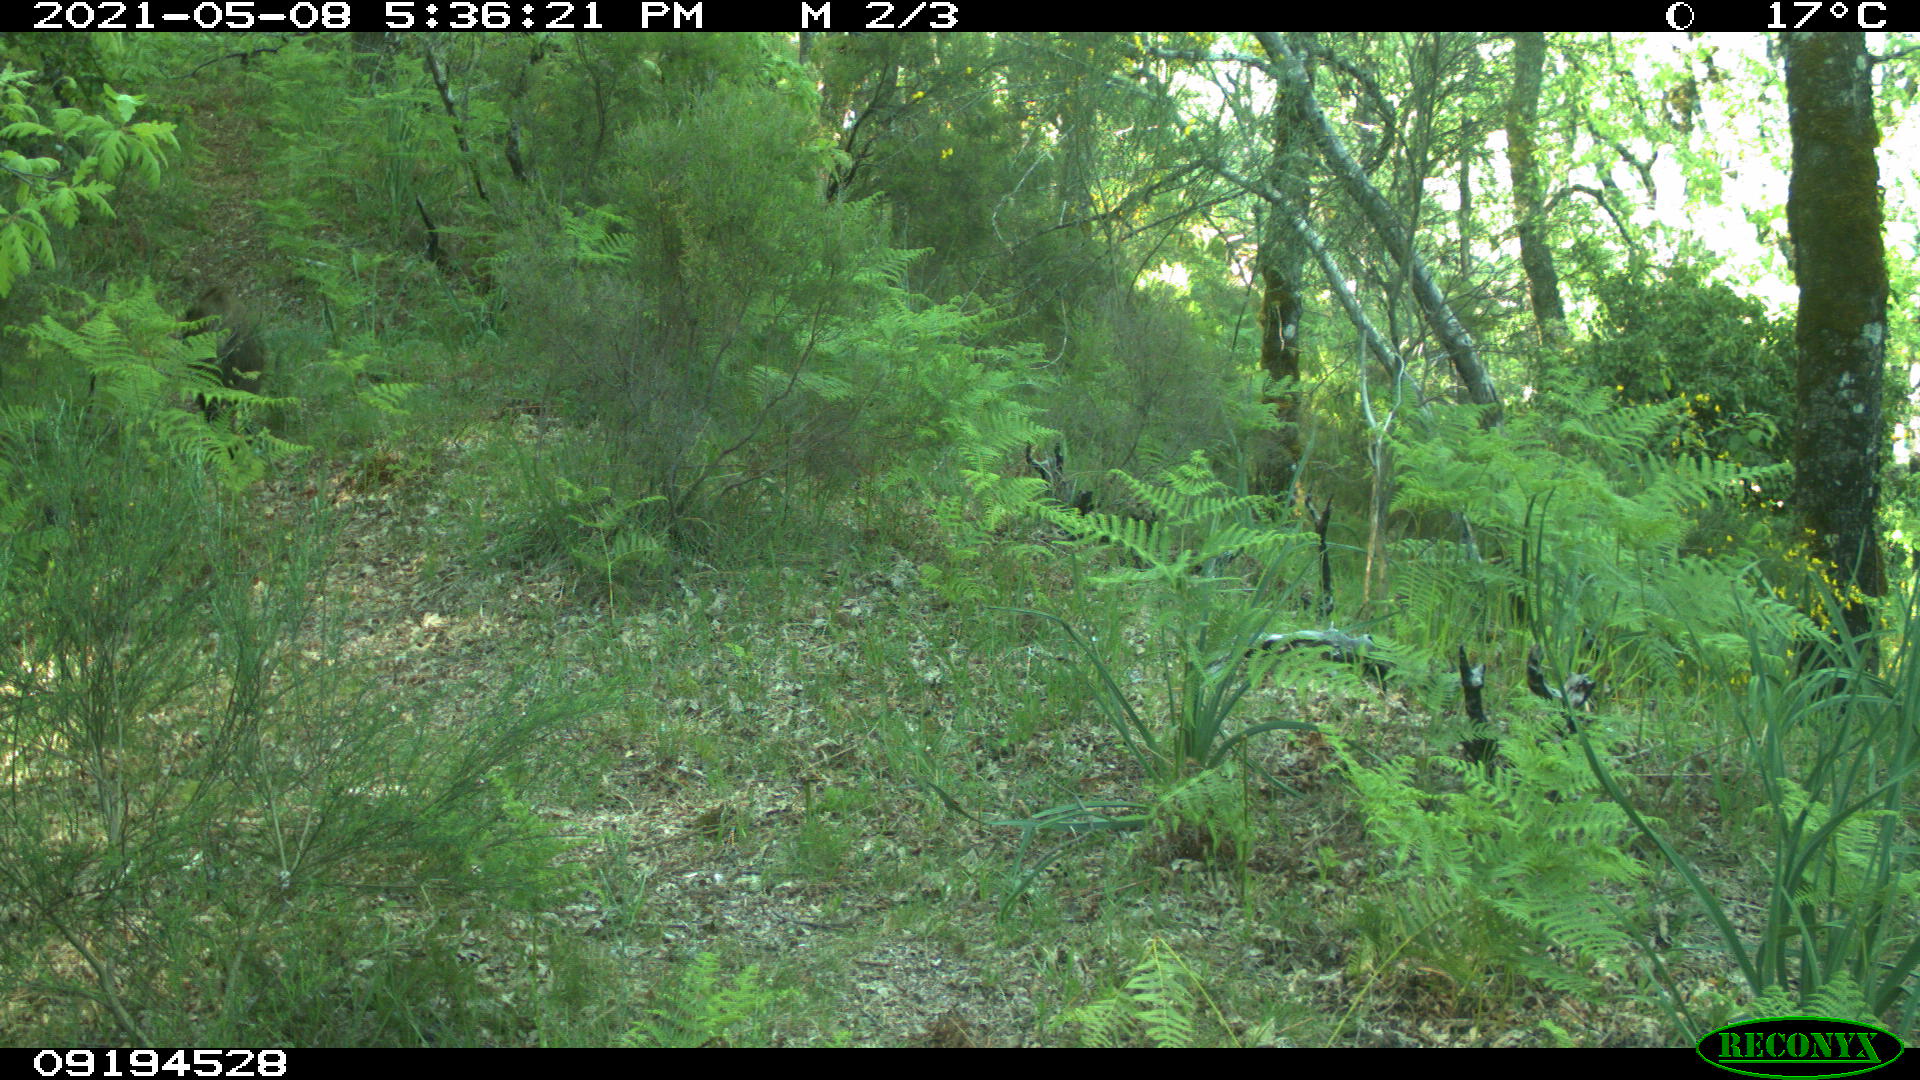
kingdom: Animalia
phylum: Chordata
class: Mammalia
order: Artiodactyla
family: Suidae
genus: Sus
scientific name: Sus scrofa
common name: Wild boar
